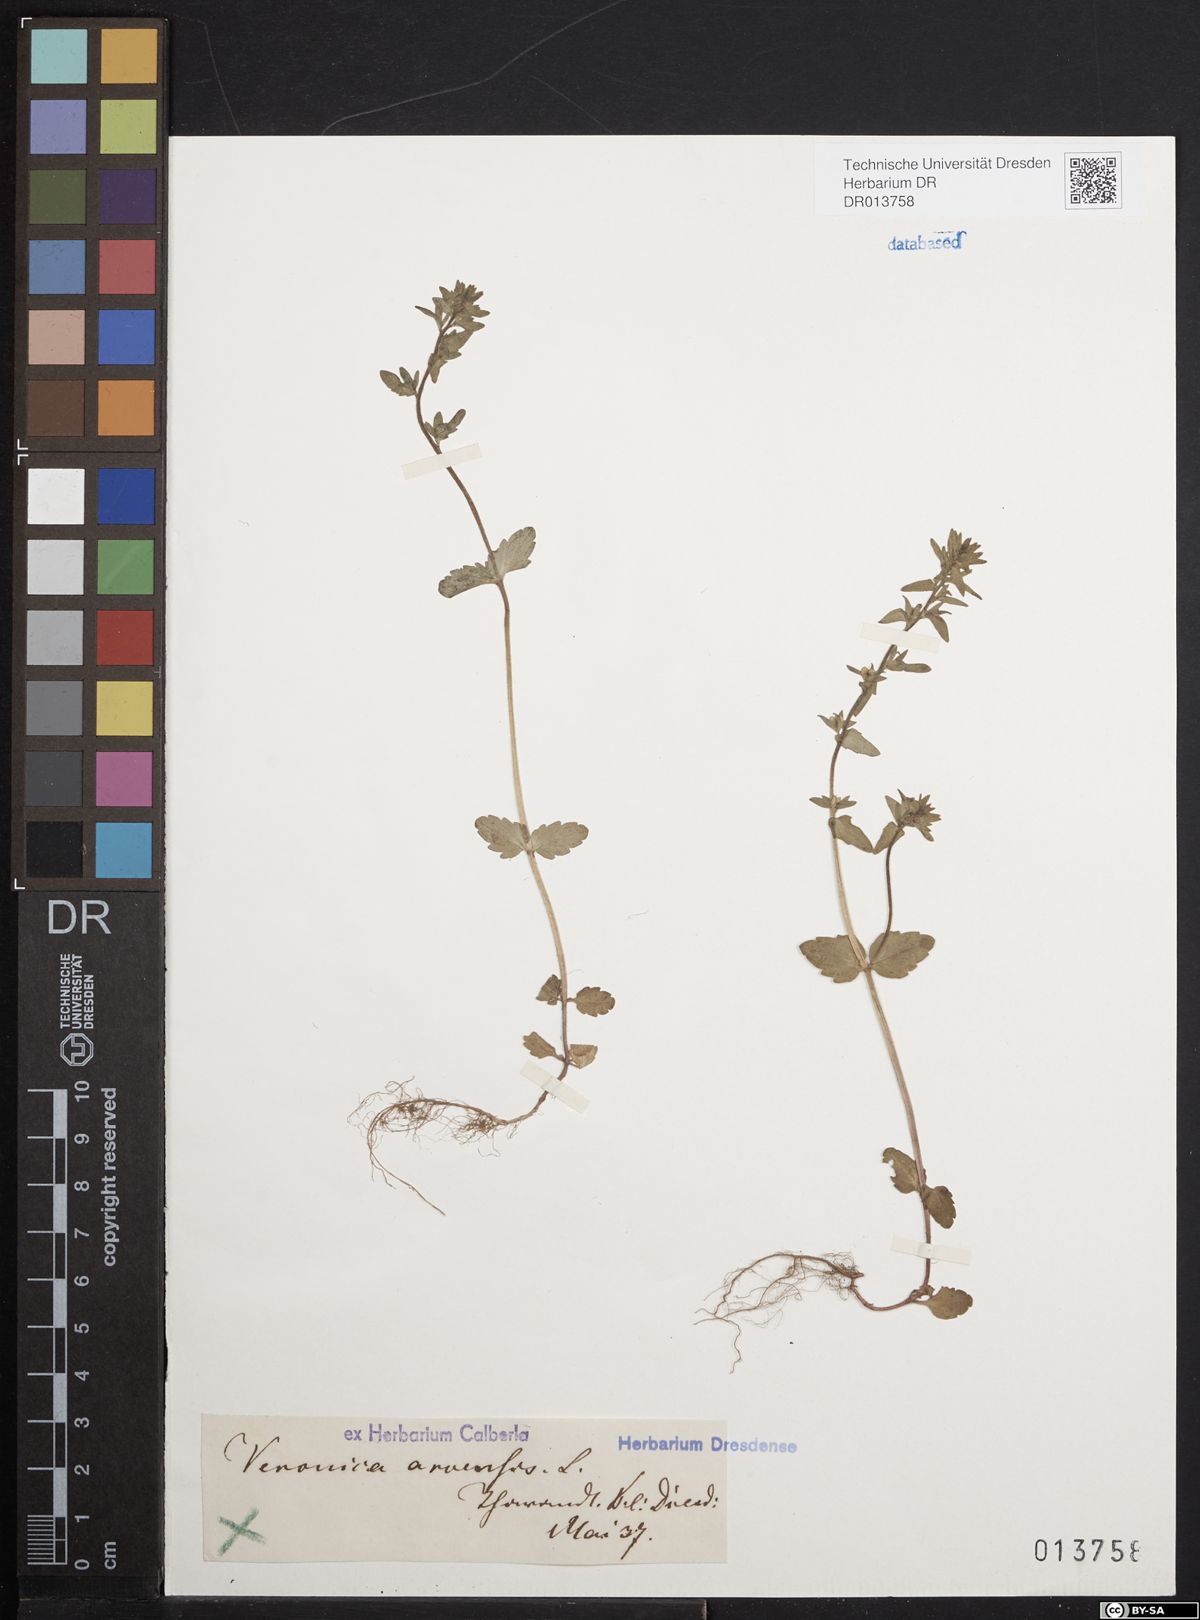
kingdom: Plantae
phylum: Tracheophyta
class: Magnoliopsida
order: Lamiales
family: Plantaginaceae
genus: Veronica
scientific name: Veronica arvensis
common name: Corn speedwell
